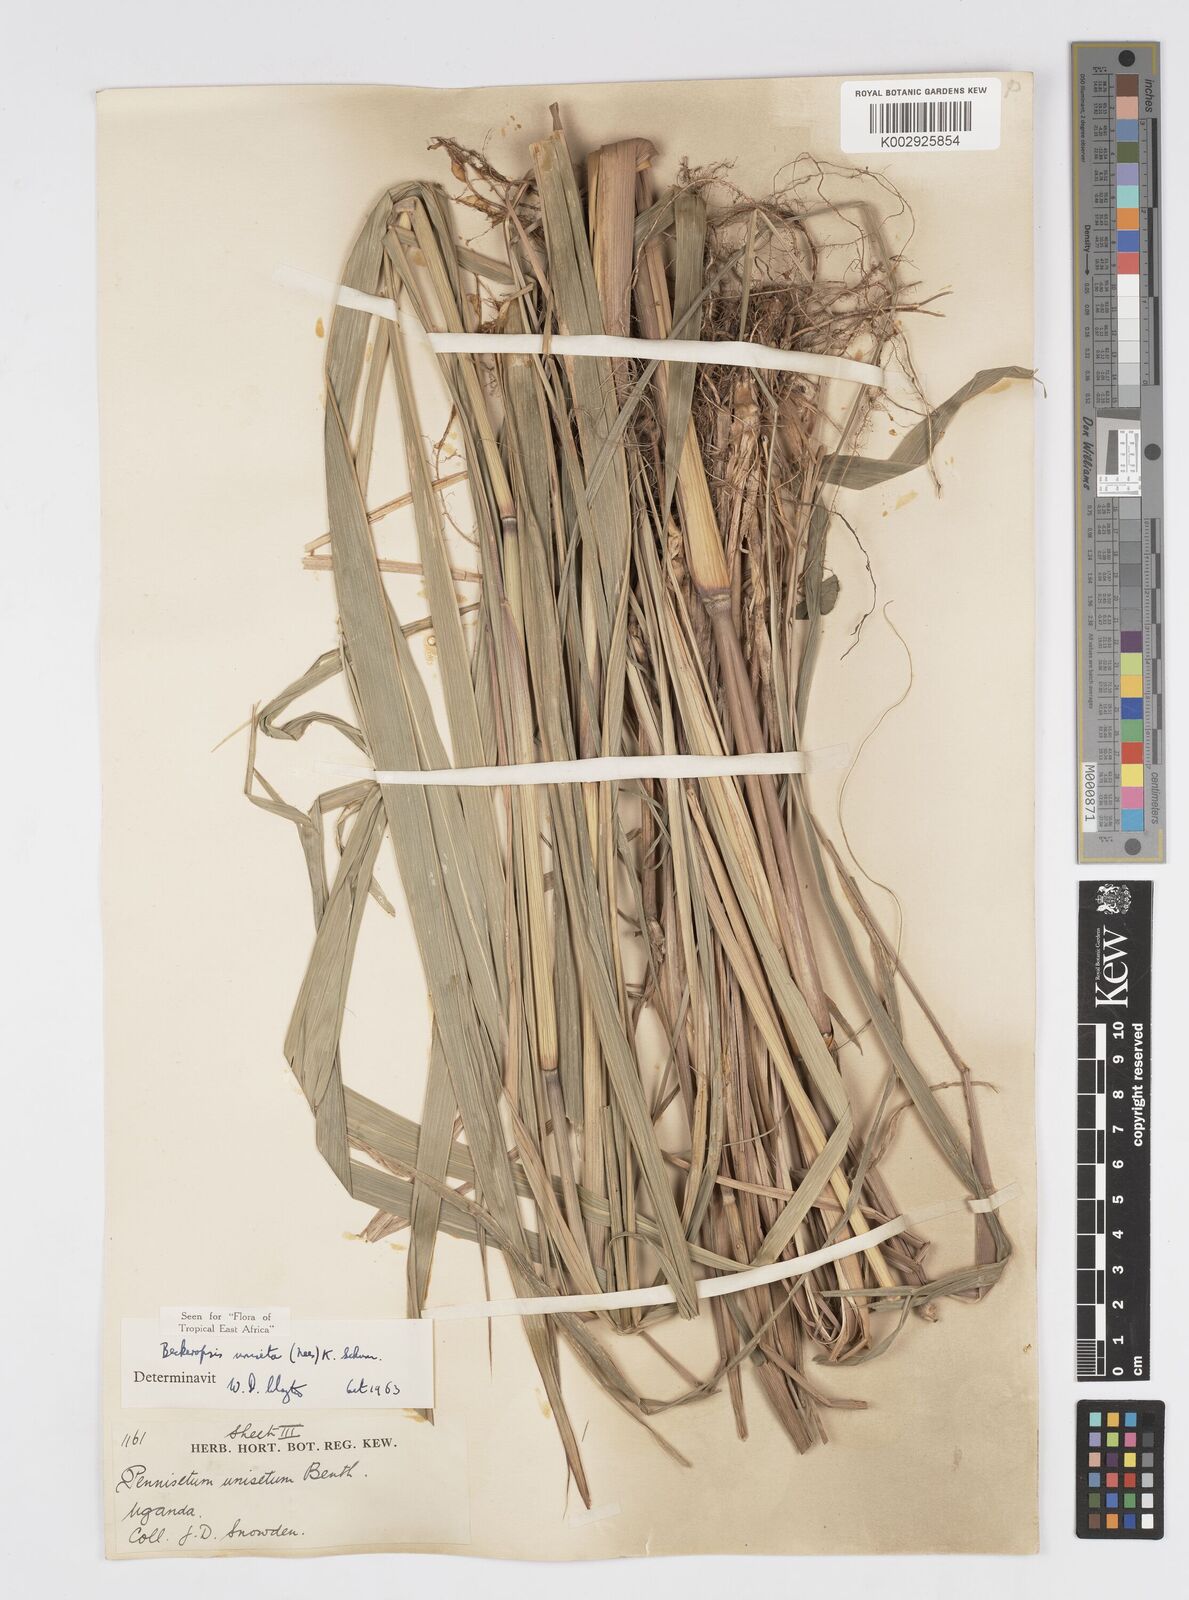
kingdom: Plantae
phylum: Tracheophyta
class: Liliopsida
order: Poales
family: Poaceae
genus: Cenchrus
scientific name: Cenchrus unisetus
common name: Natal grass
